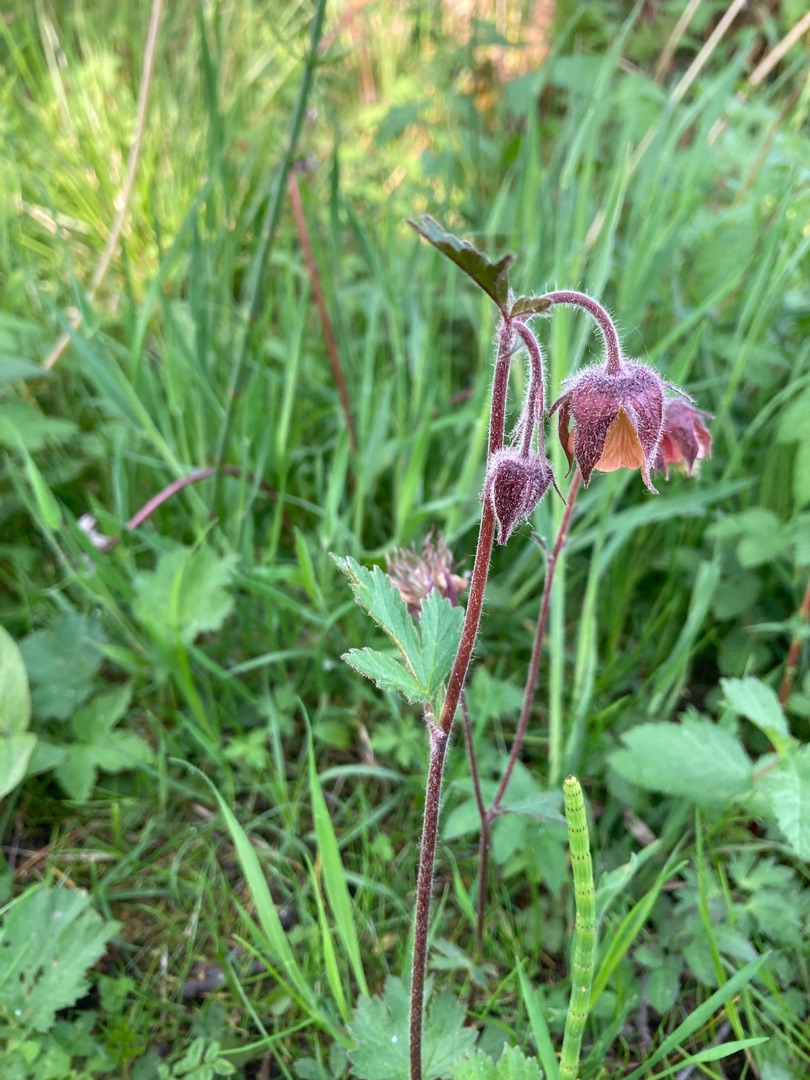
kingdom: Plantae
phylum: Tracheophyta
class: Magnoliopsida
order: Rosales
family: Rosaceae
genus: Geum
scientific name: Geum rivale
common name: Eng-nellikerod
